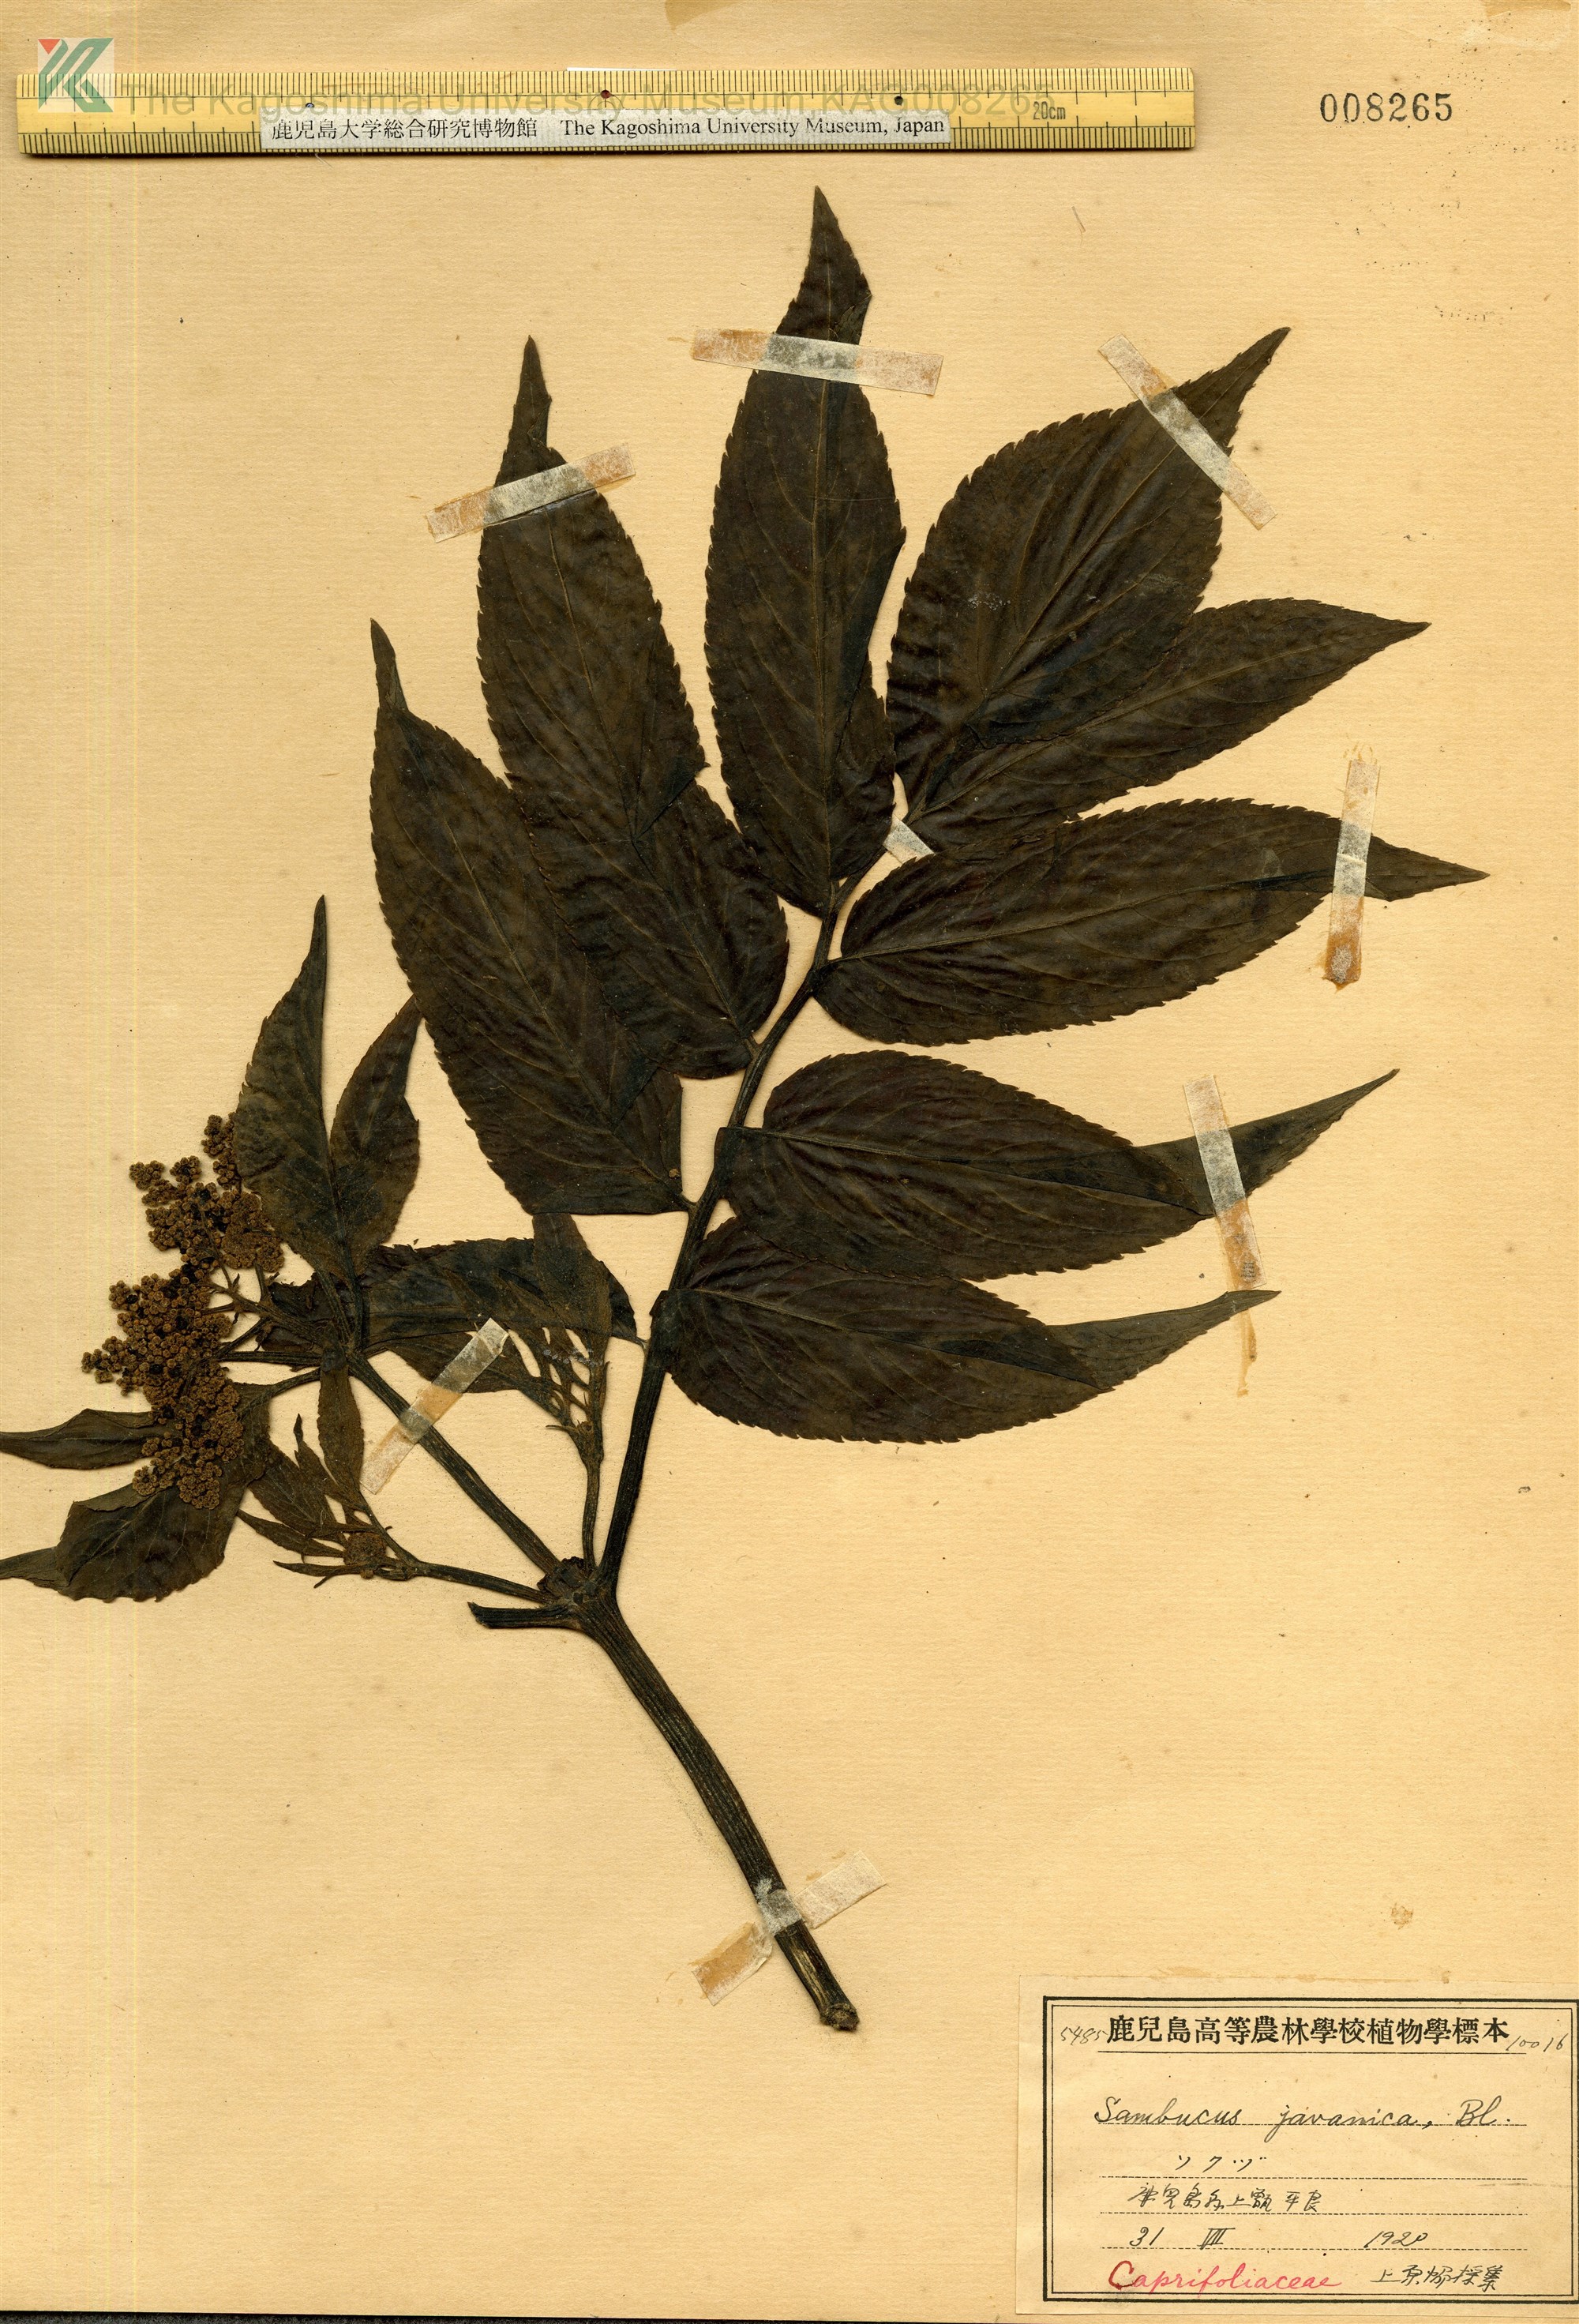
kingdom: Plantae
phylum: Tracheophyta
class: Magnoliopsida
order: Dipsacales
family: Viburnaceae
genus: Sambucus
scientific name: Sambucus javanica
